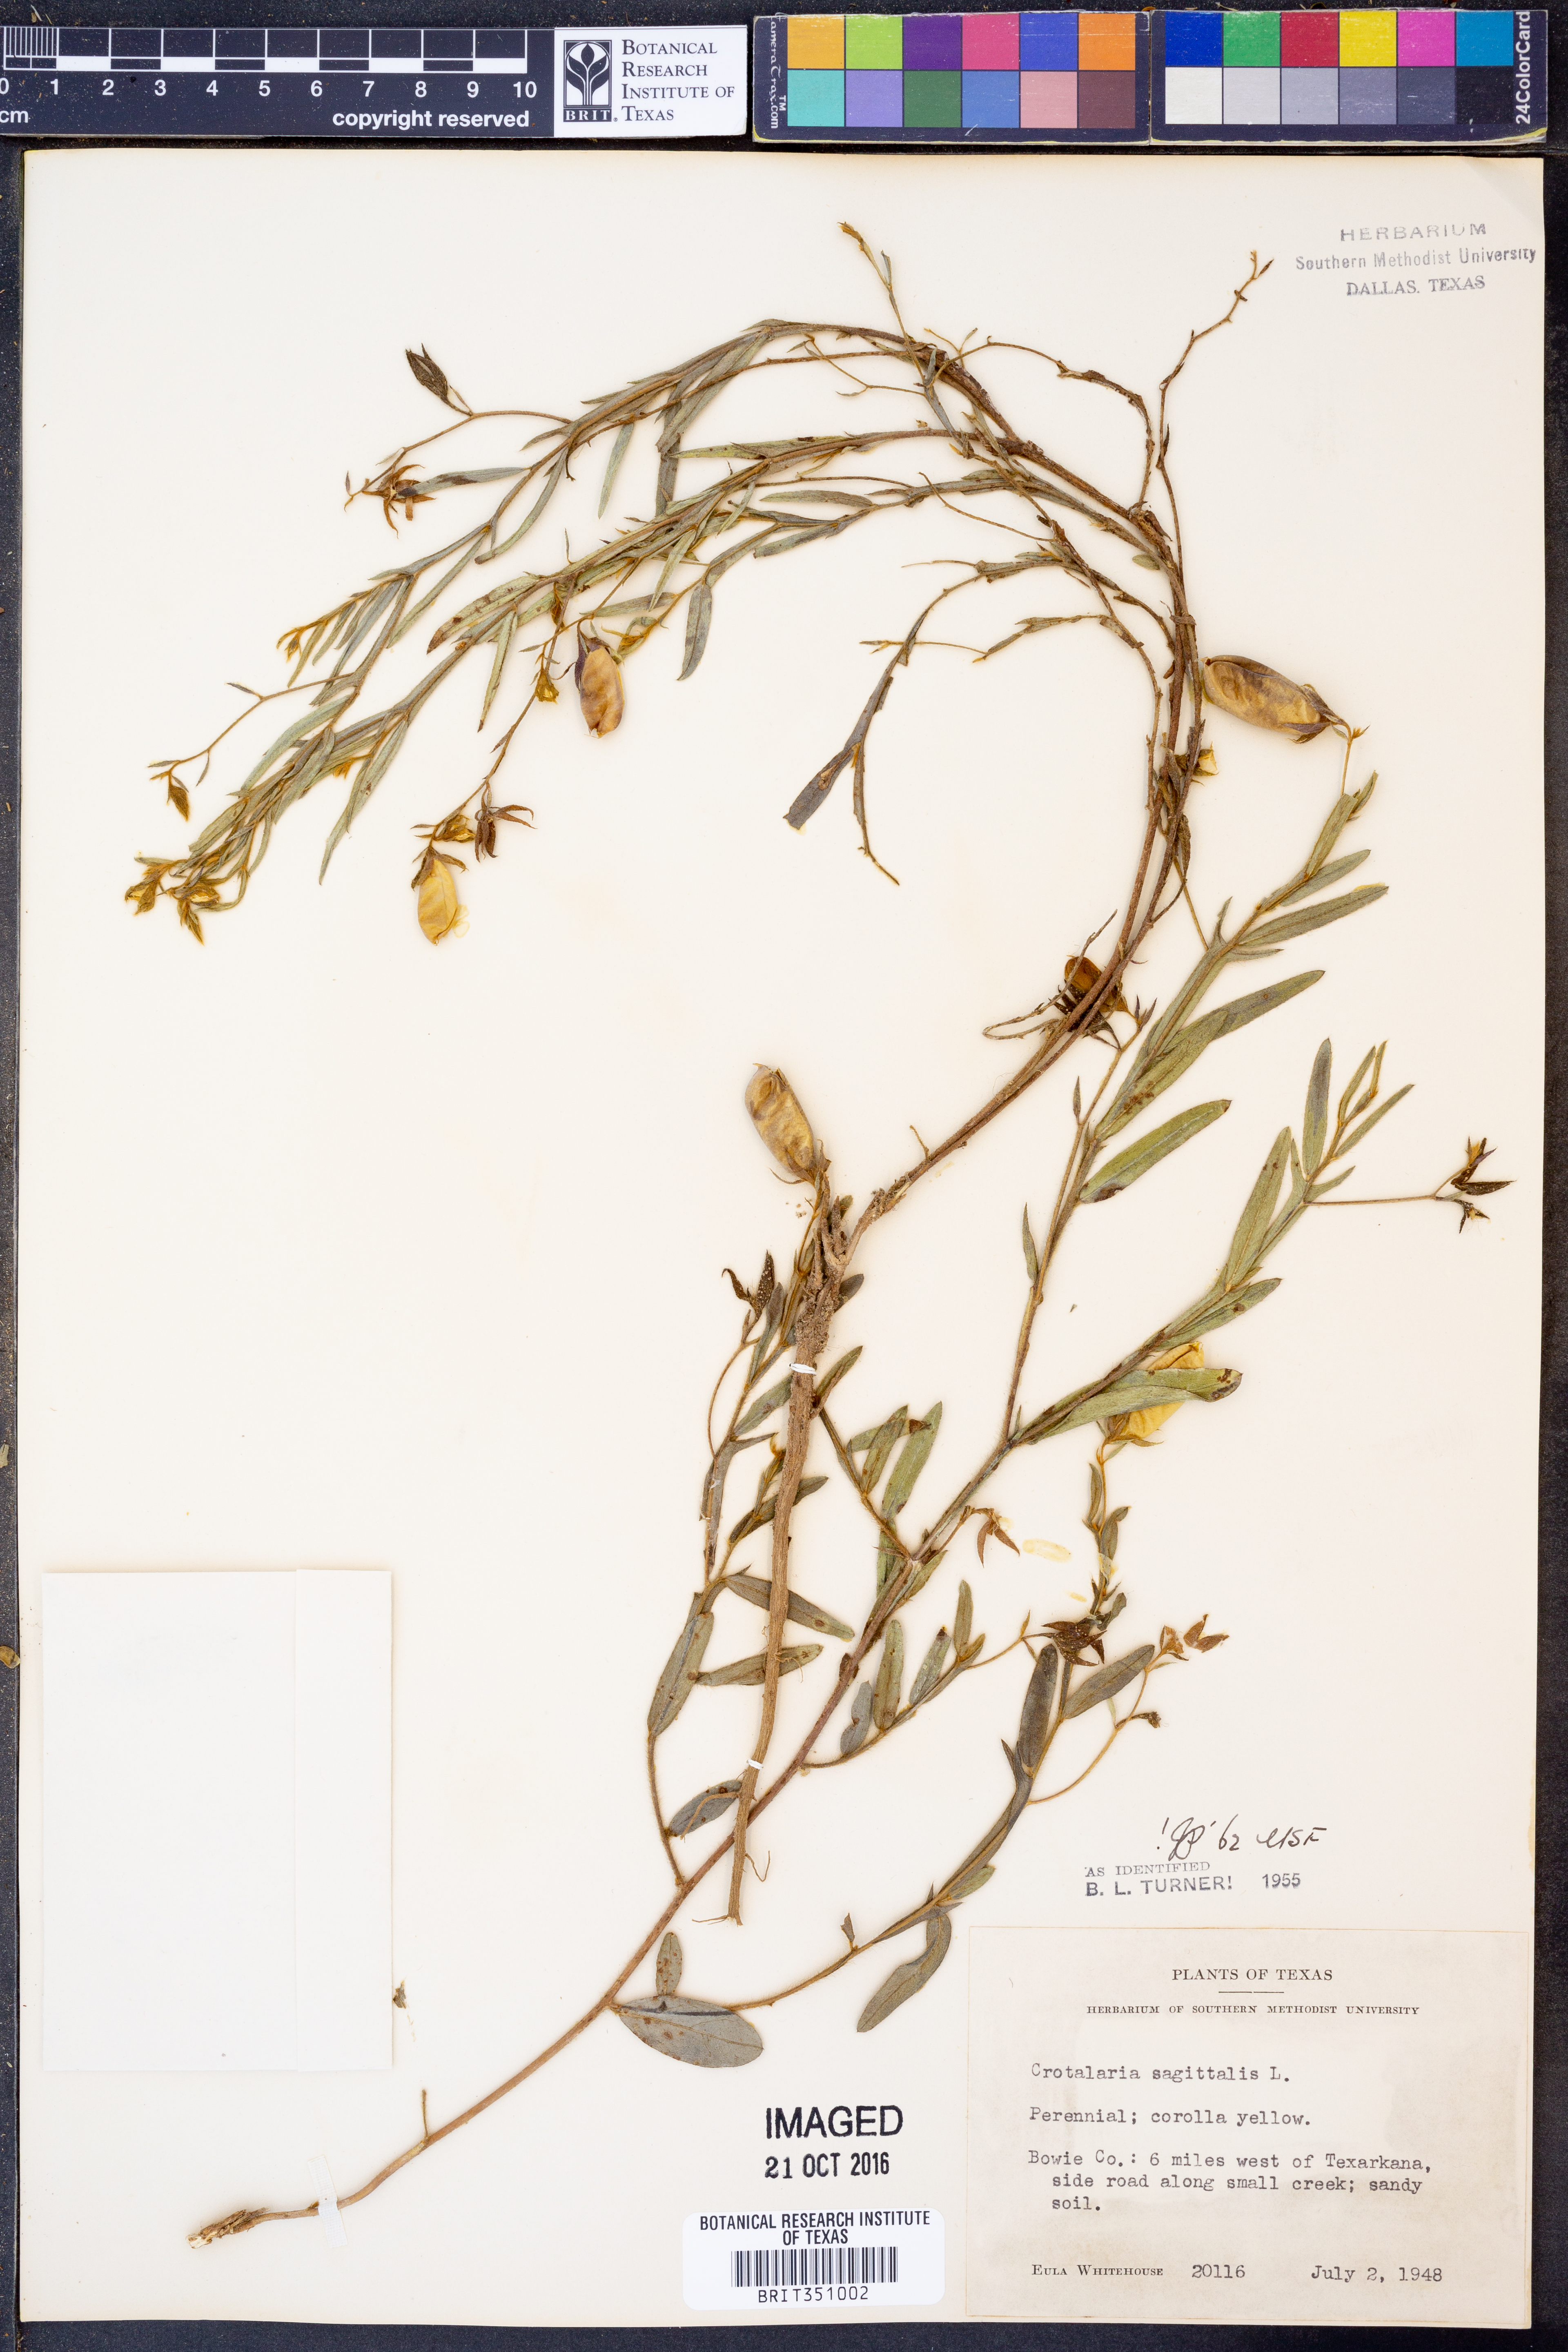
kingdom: Plantae
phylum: Tracheophyta
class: Magnoliopsida
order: Fabales
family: Fabaceae
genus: Crotalaria
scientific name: Crotalaria sagittalis
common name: Arrowhead rattlebox
